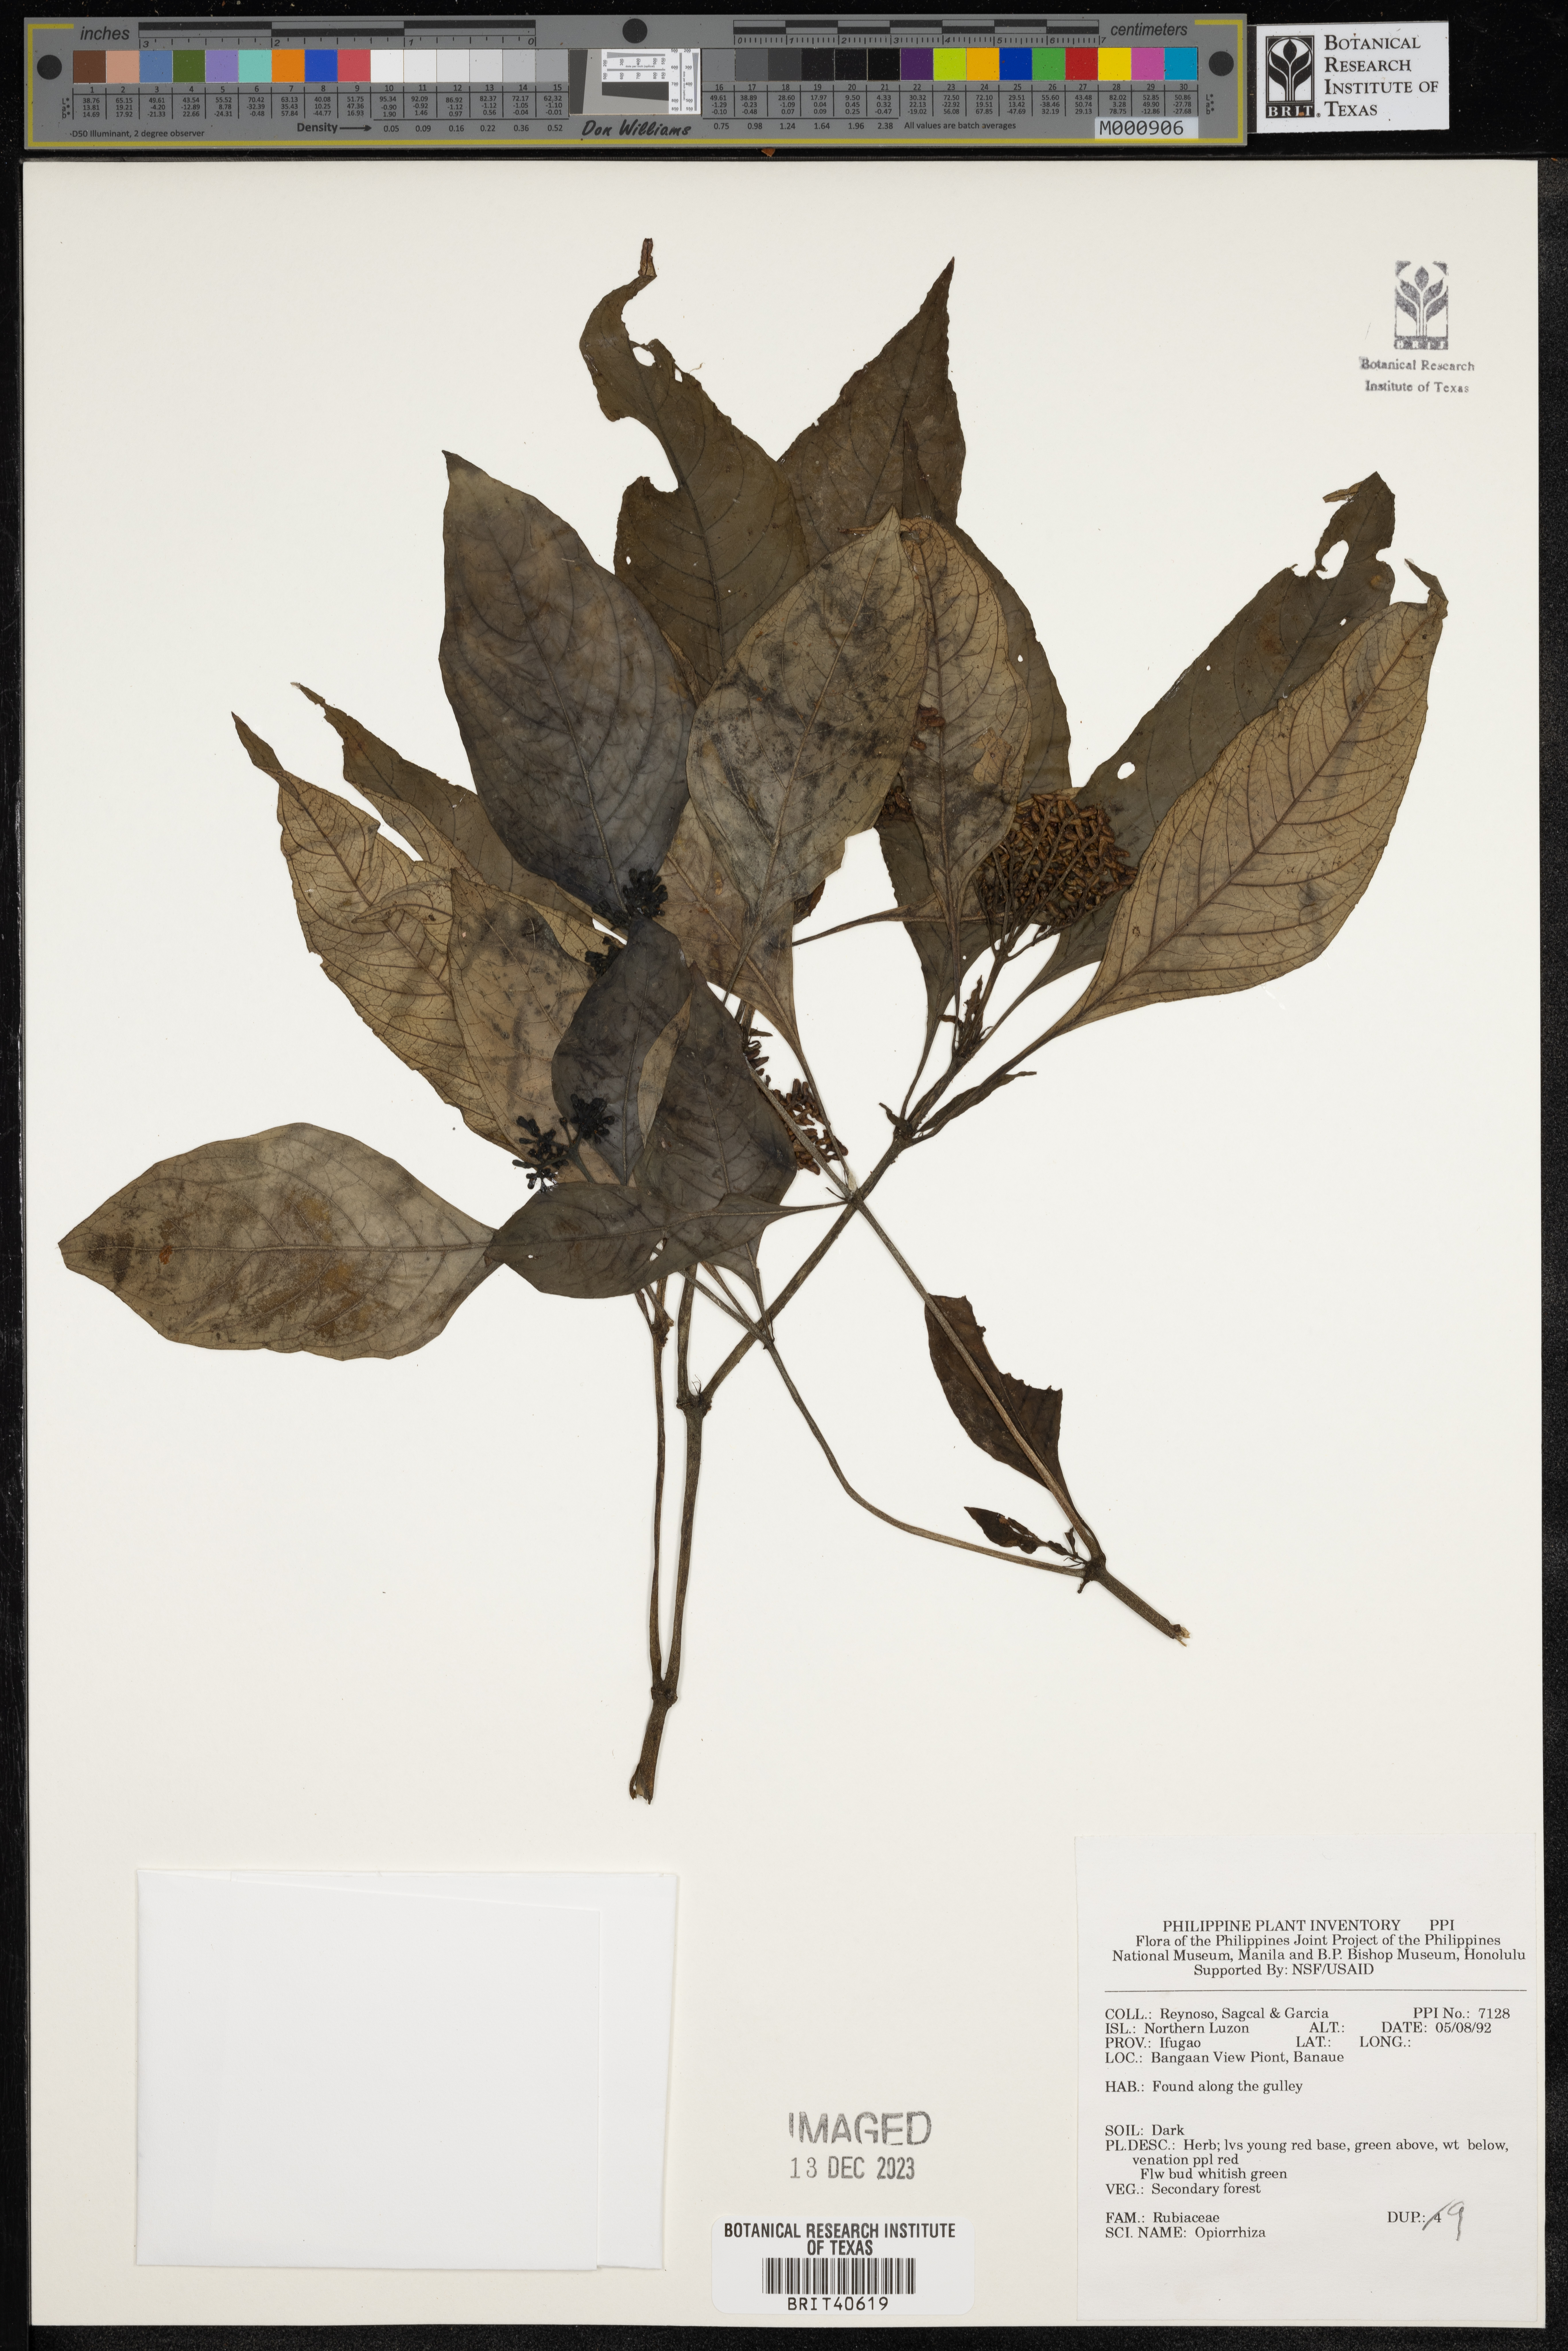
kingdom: Plantae
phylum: Tracheophyta
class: Magnoliopsida
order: Gentianales
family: Rubiaceae
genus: Ophiorrhiza
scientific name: Ophiorrhiza
